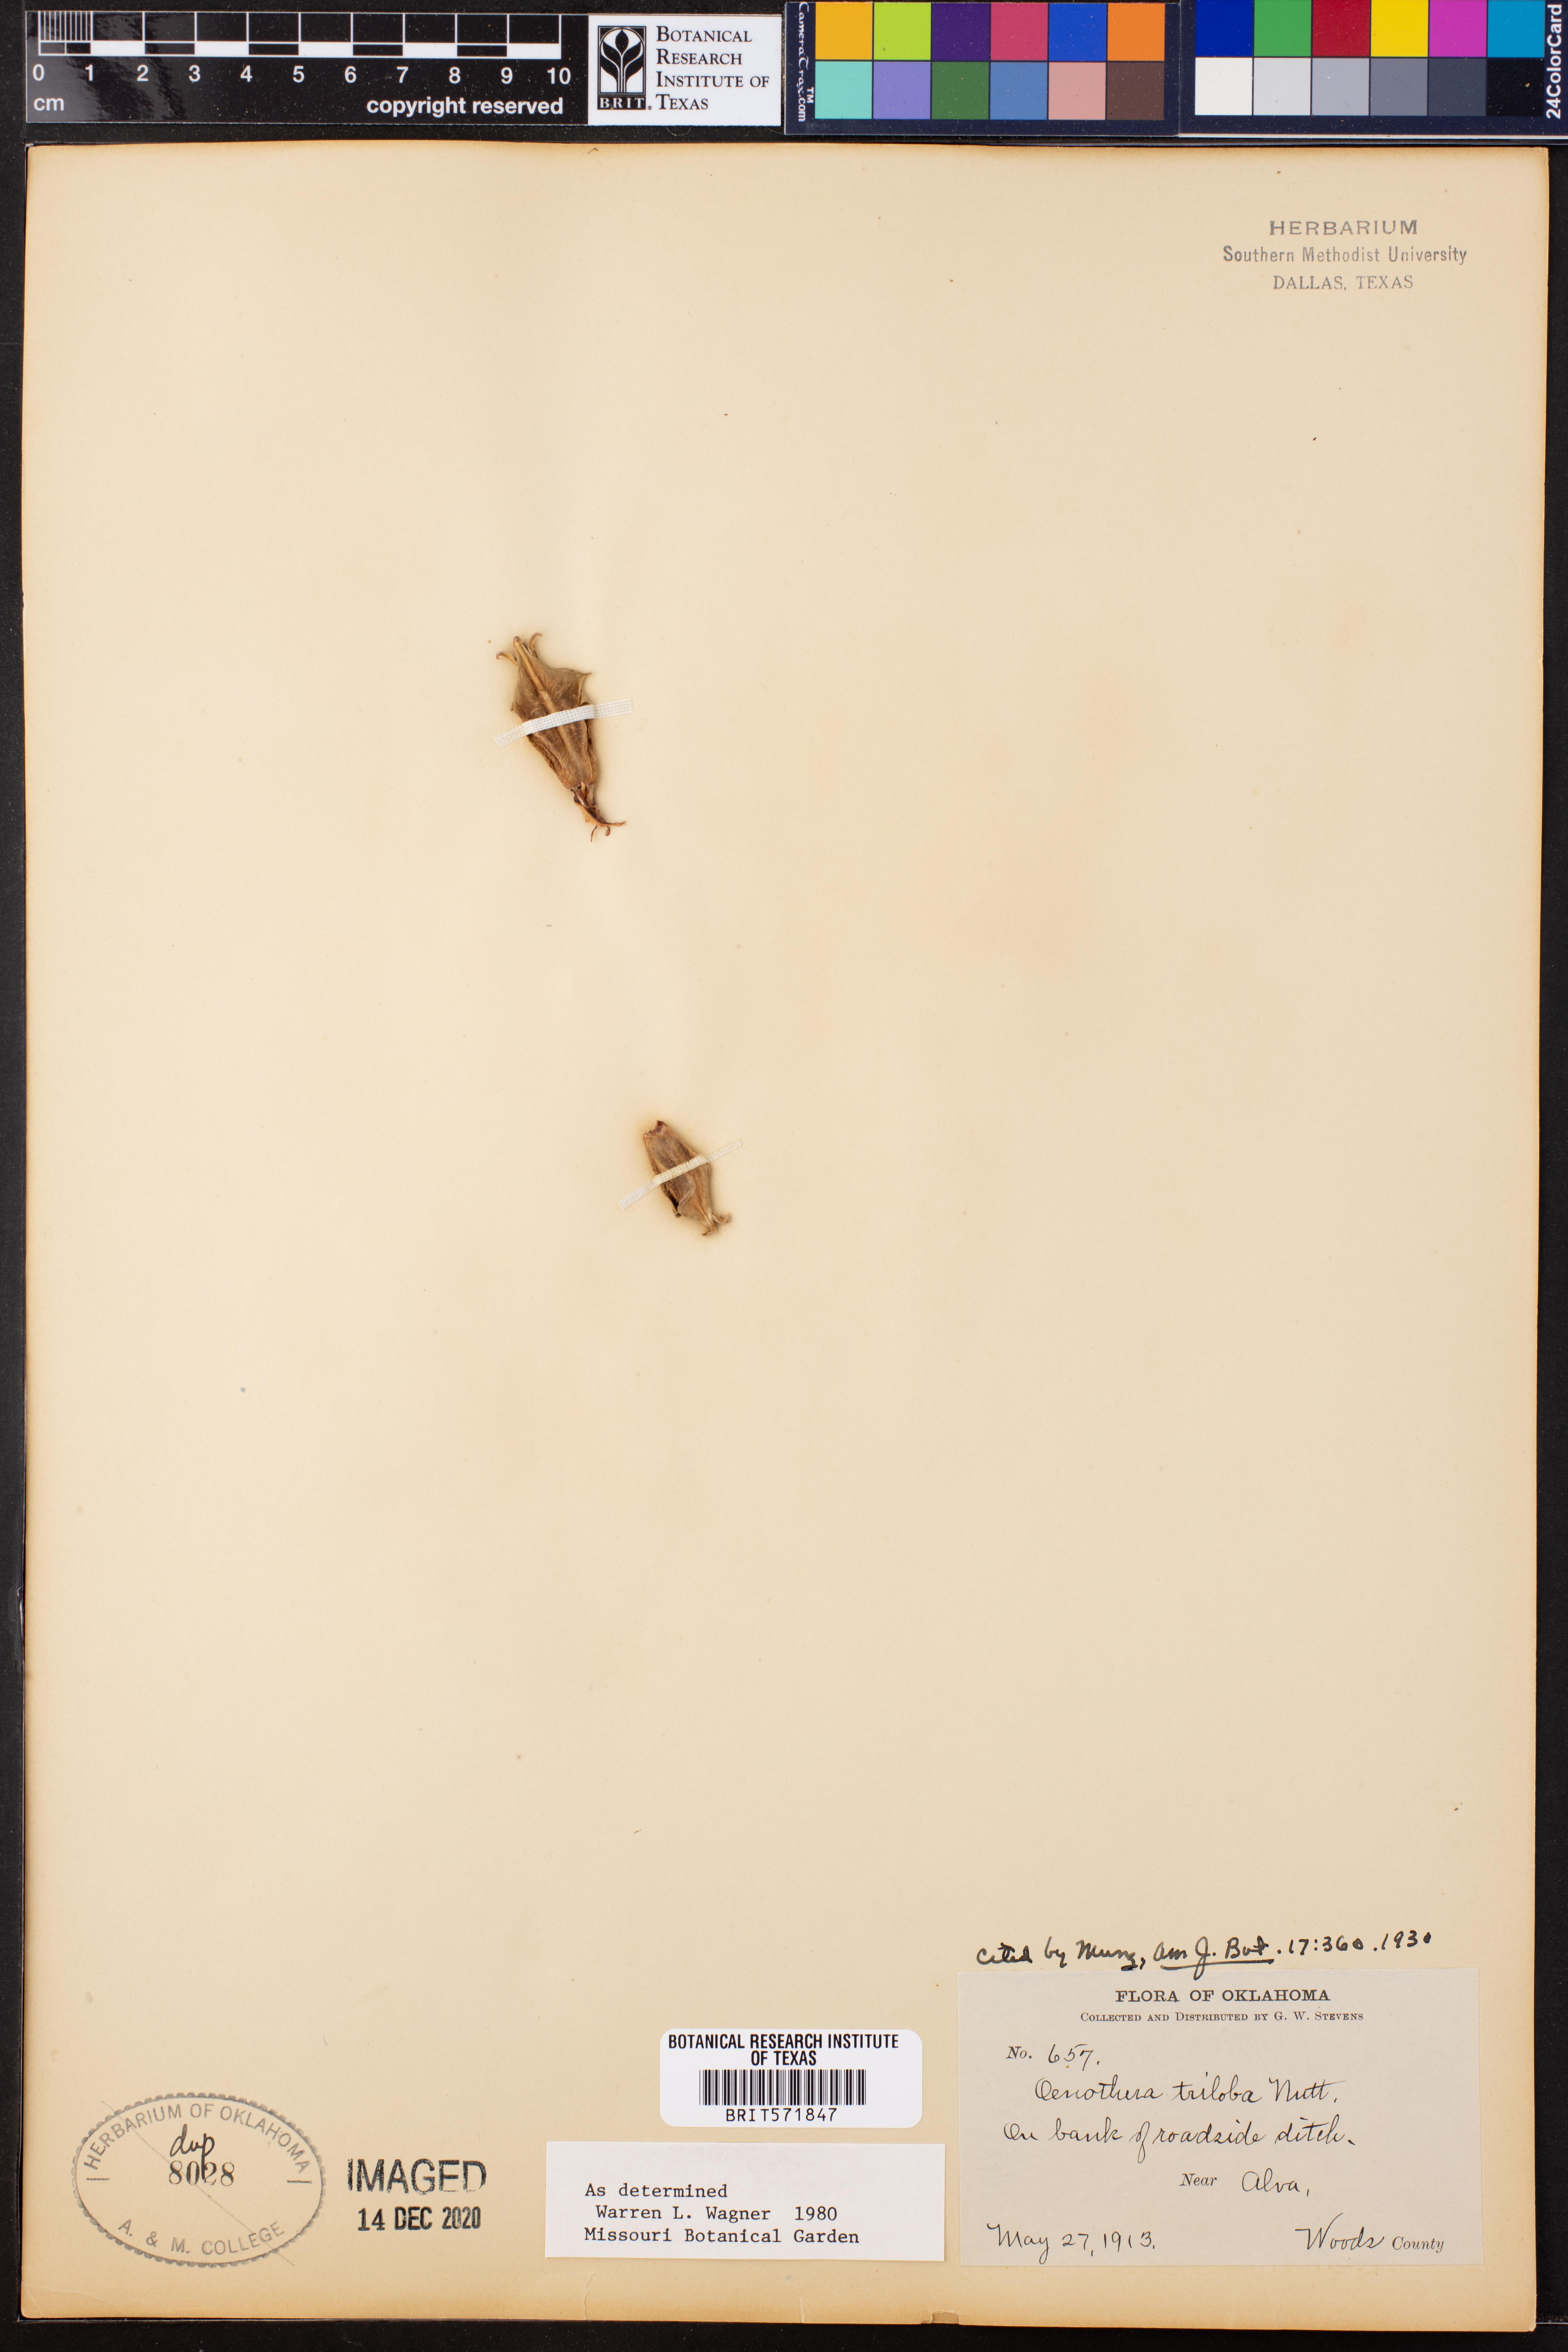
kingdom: Plantae
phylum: Tracheophyta
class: Magnoliopsida
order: Myrtales
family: Onagraceae
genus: Oenothera
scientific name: Oenothera triloba
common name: Sessile evening-primrose
